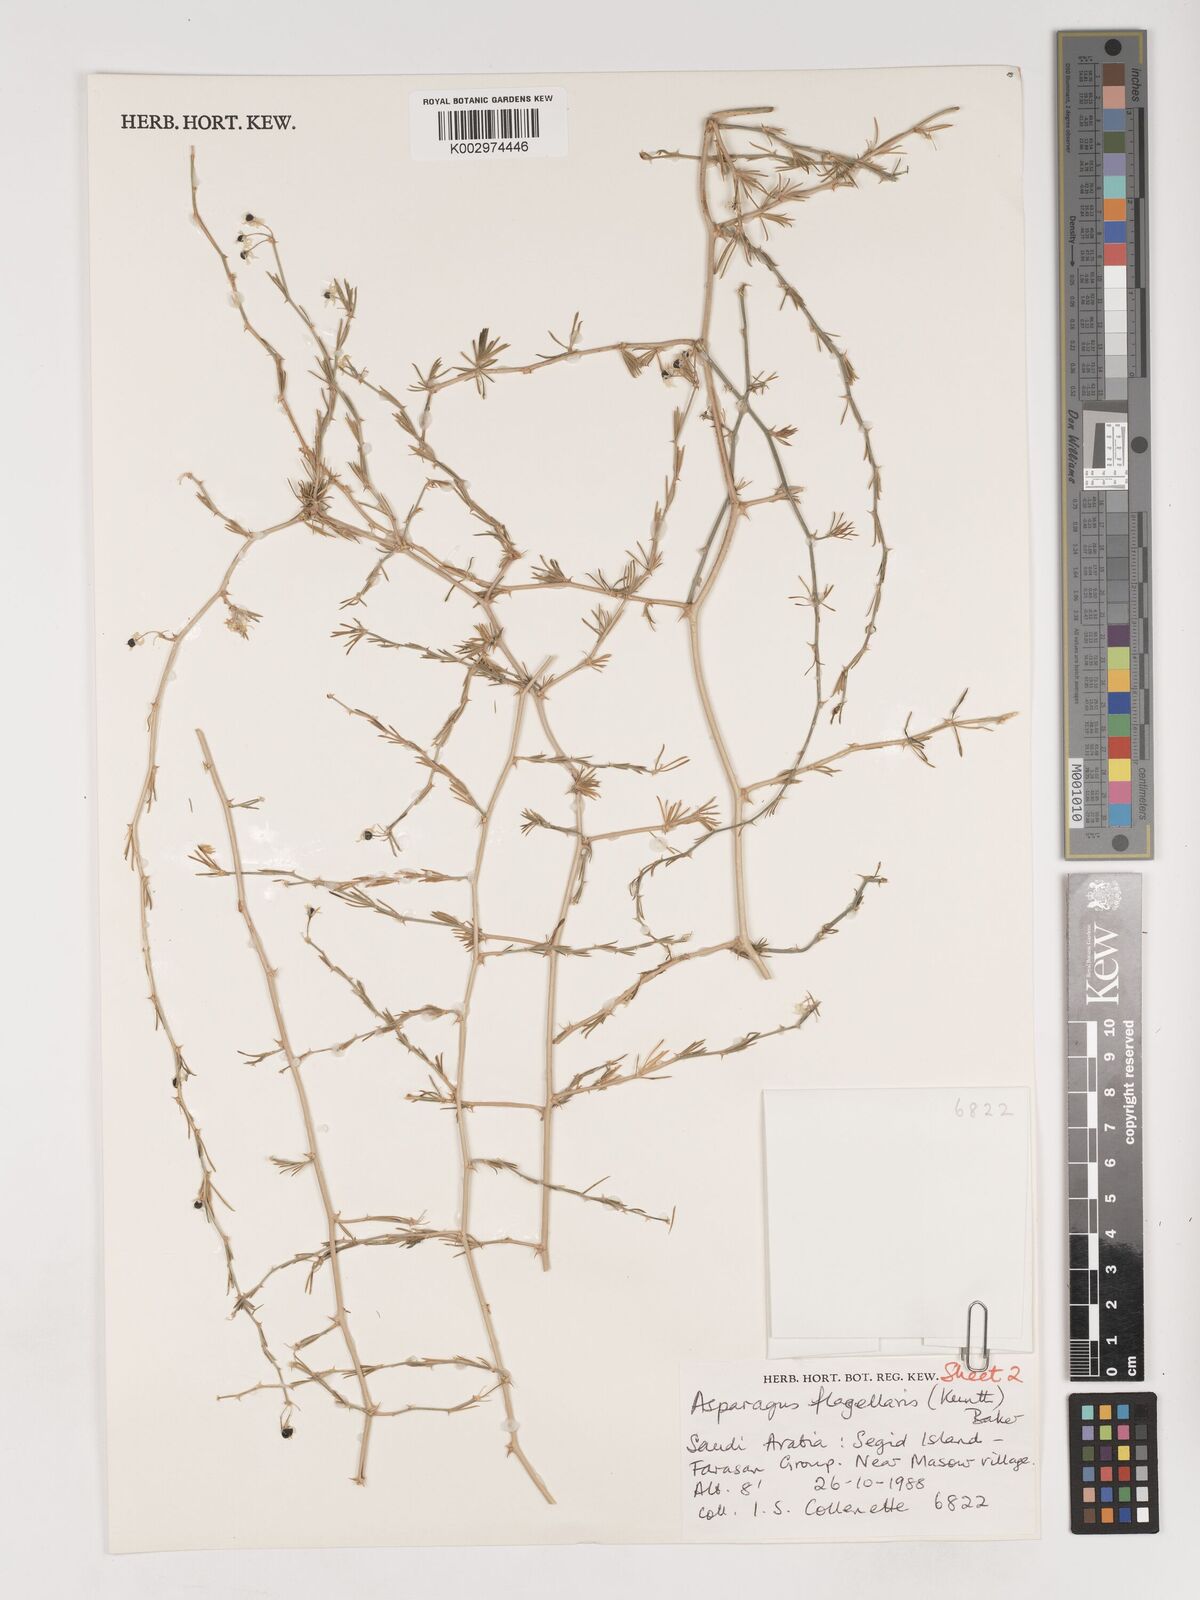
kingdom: Plantae
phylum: Tracheophyta
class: Liliopsida
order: Asparagales
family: Asparagaceae
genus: Asparagus
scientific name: Asparagus flagellaris
